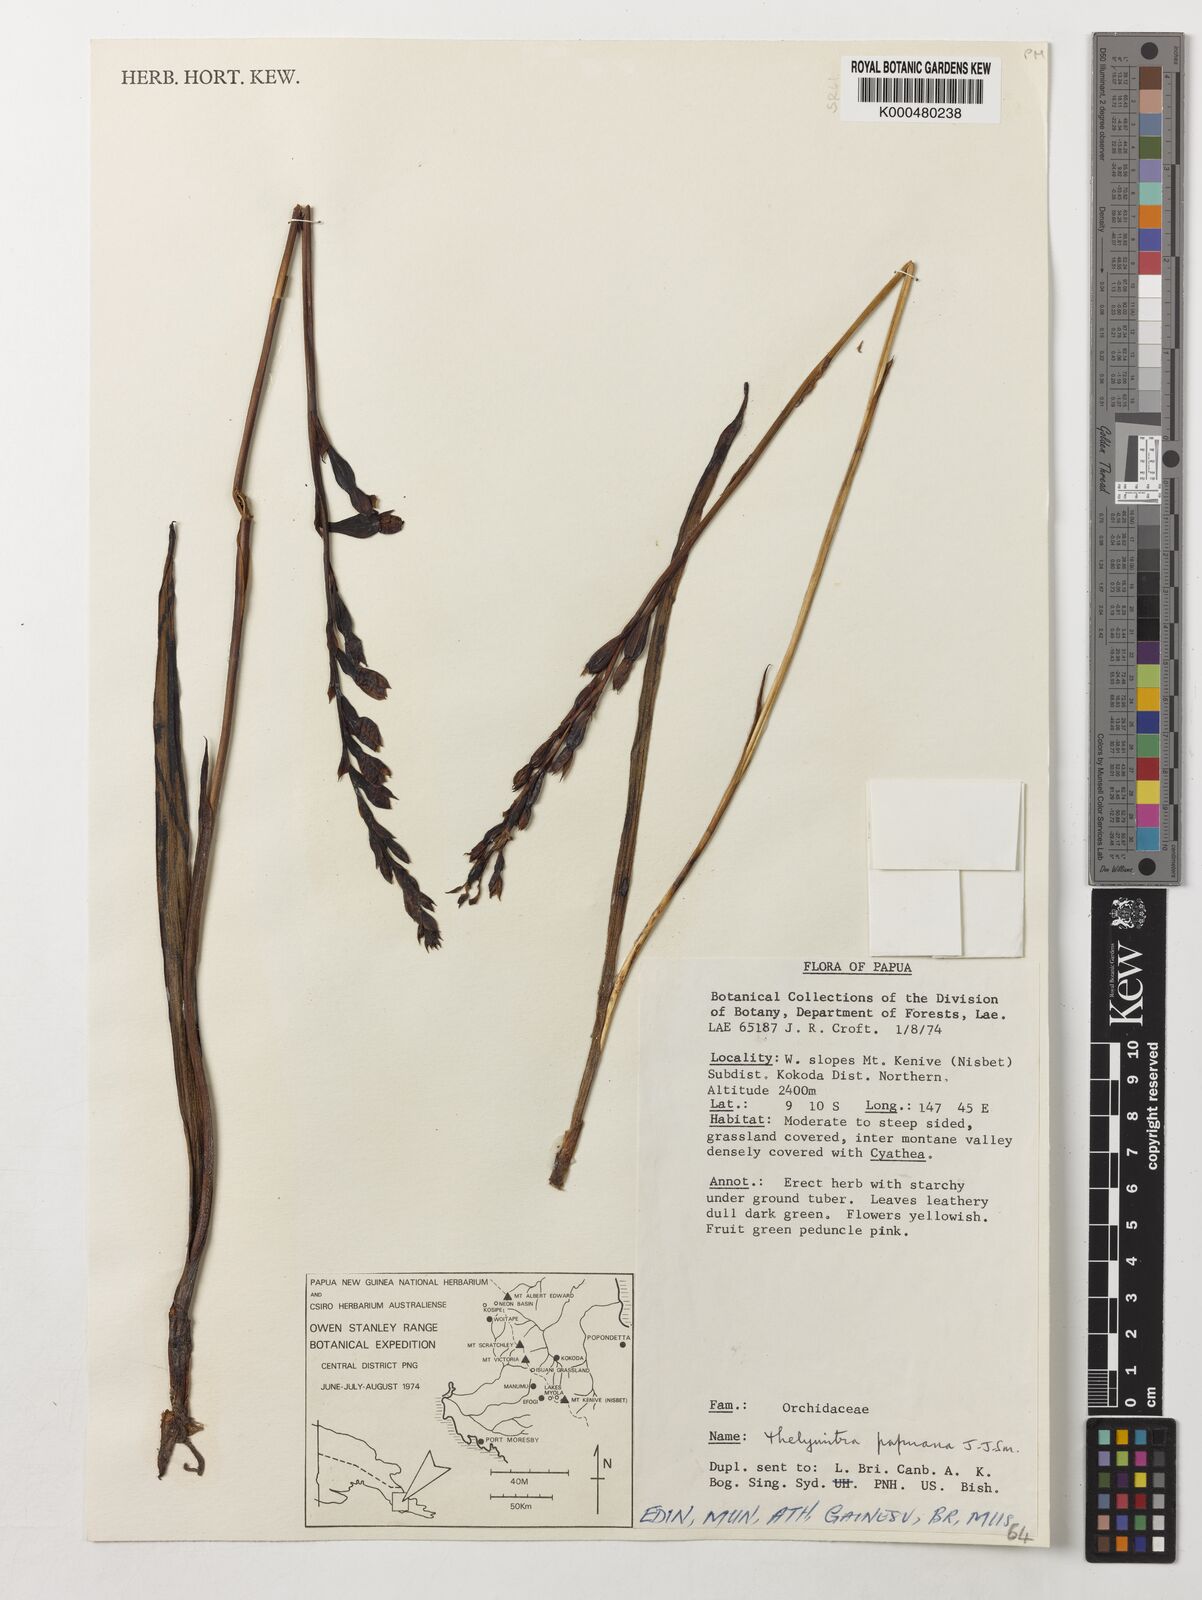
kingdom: Plantae
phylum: Tracheophyta
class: Liliopsida
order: Asparagales
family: Orchidaceae
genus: Thelymitra
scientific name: Thelymitra papuana
